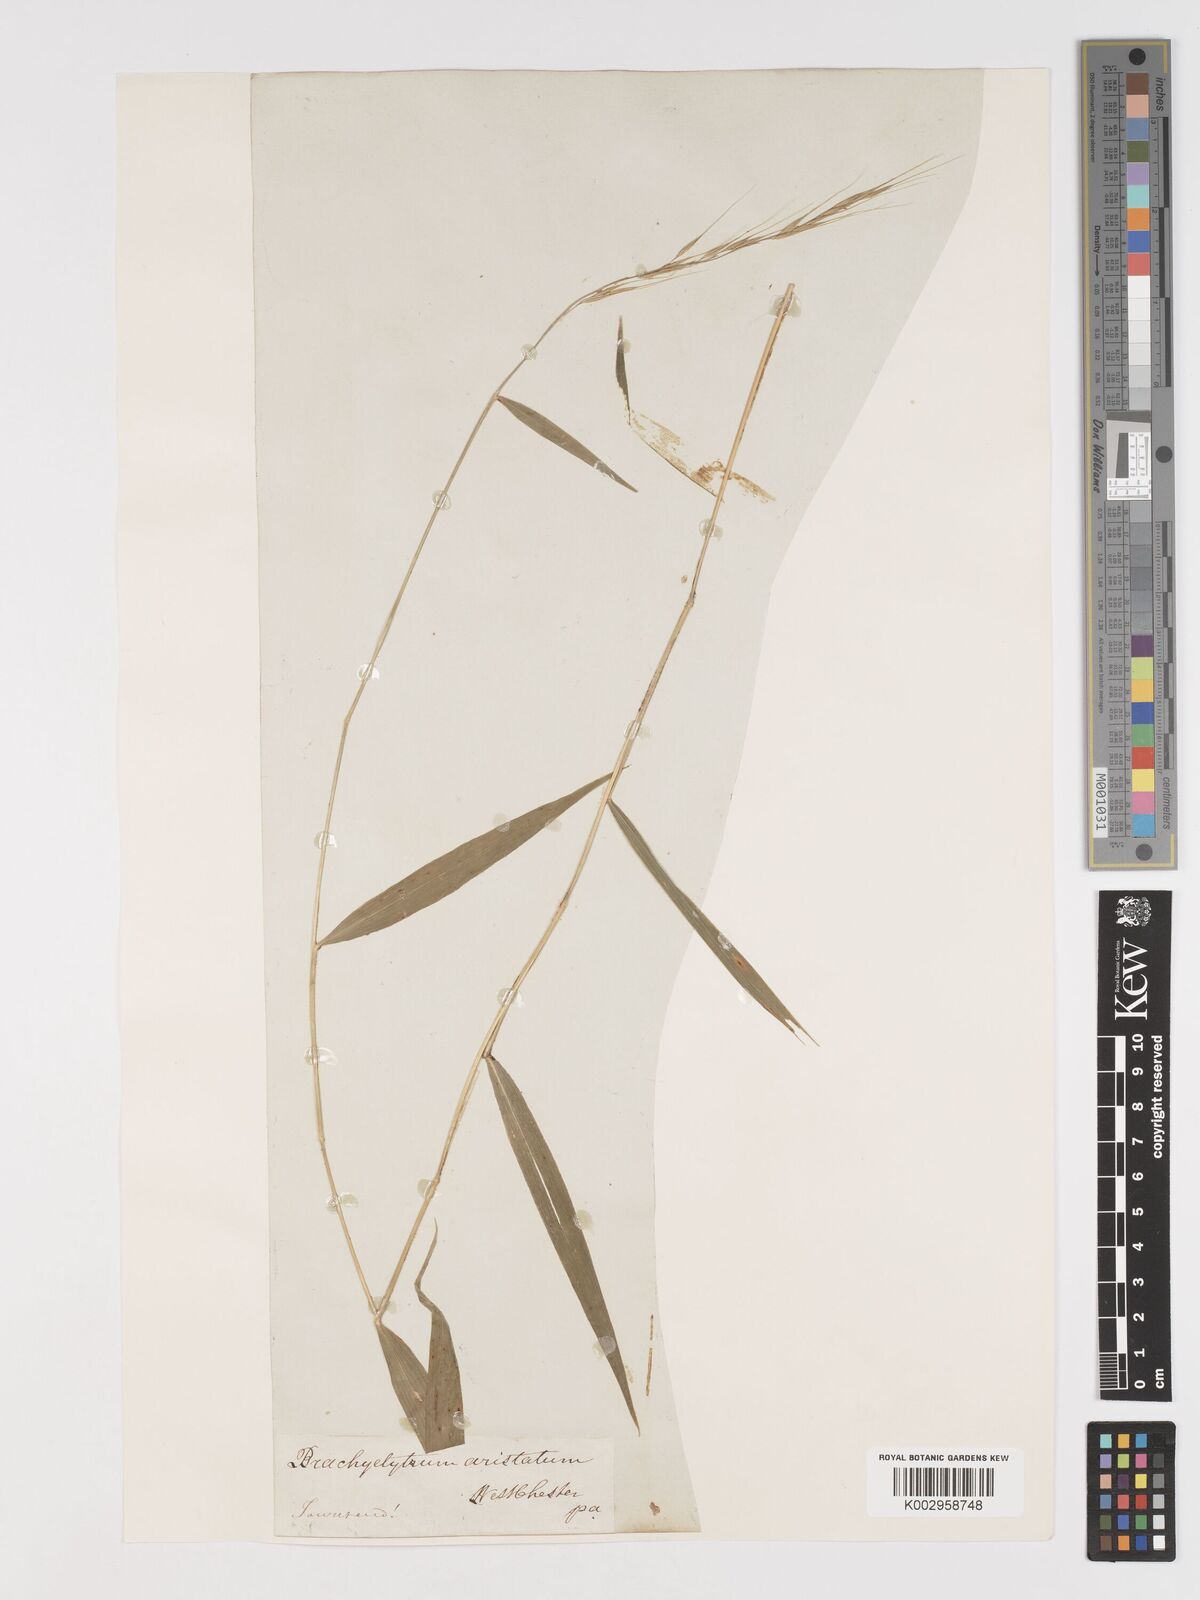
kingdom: Plantae
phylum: Tracheophyta
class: Liliopsida
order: Poales
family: Poaceae
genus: Brachyelytrum
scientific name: Brachyelytrum erectum
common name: Bearded shorthusk
